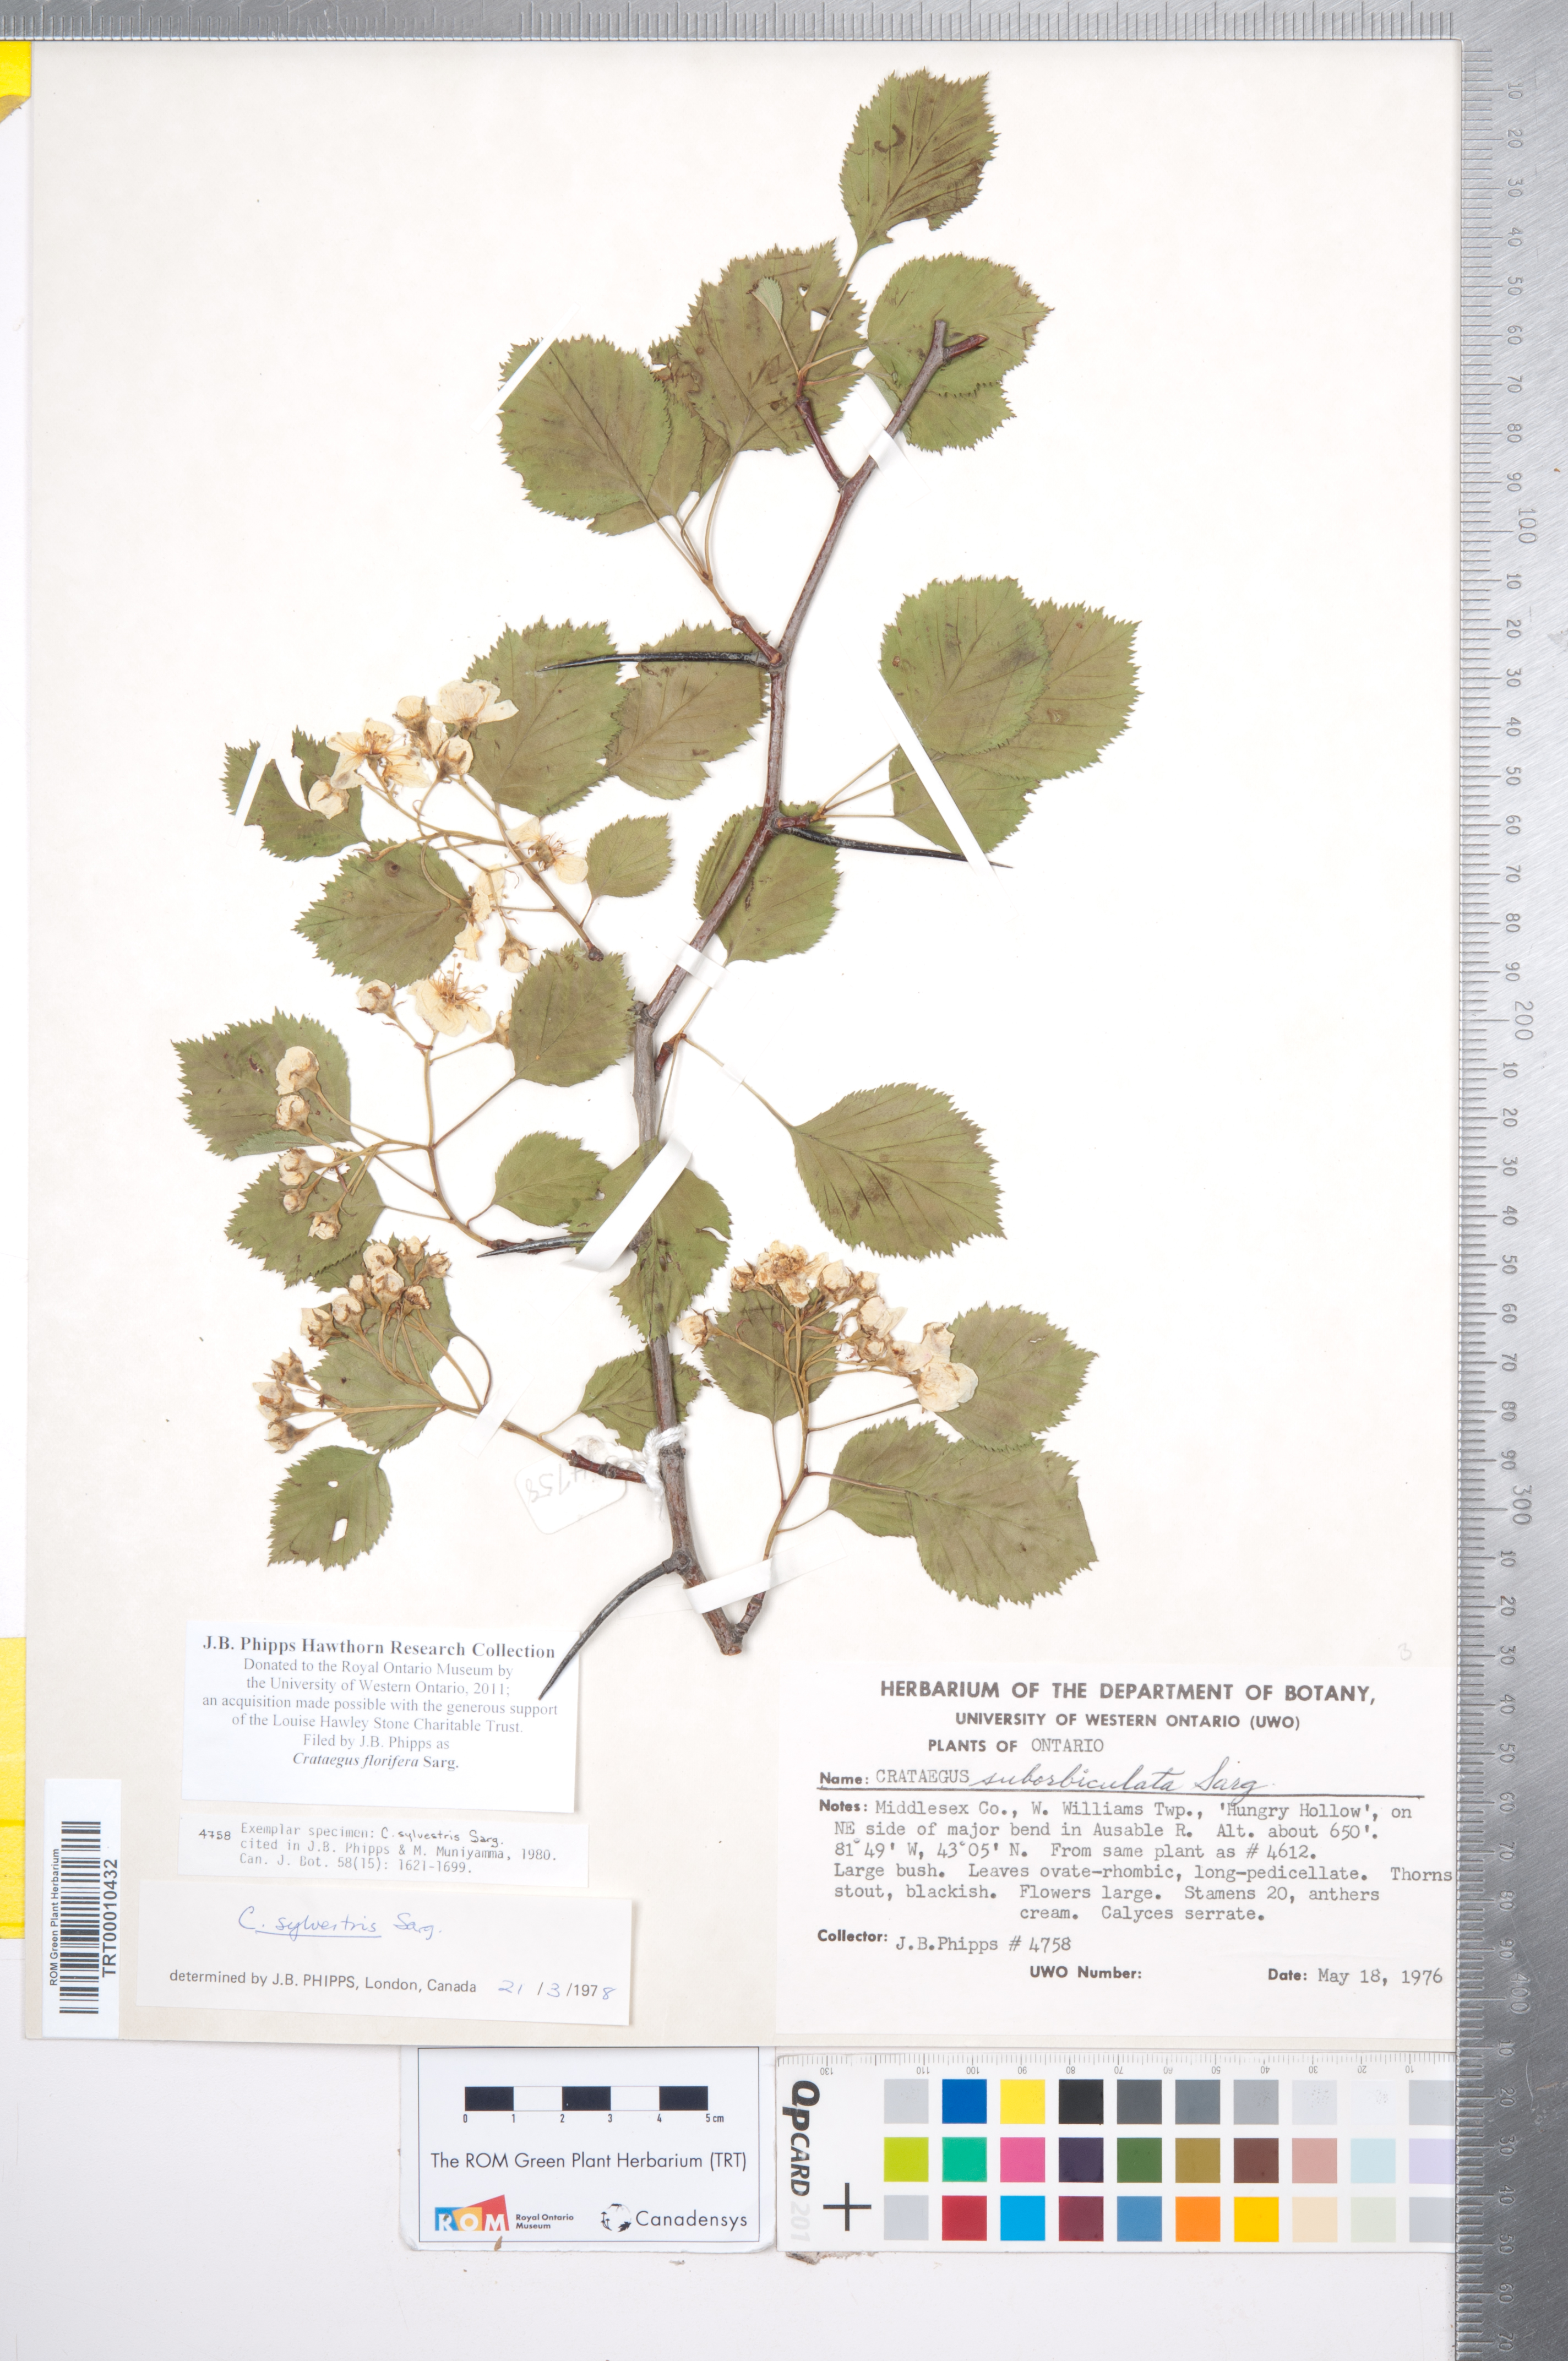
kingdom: Plantae
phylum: Tracheophyta
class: Magnoliopsida
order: Rosales
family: Rosaceae
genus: Crataegus
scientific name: Crataegus florifera
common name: Woodland hawthorn
